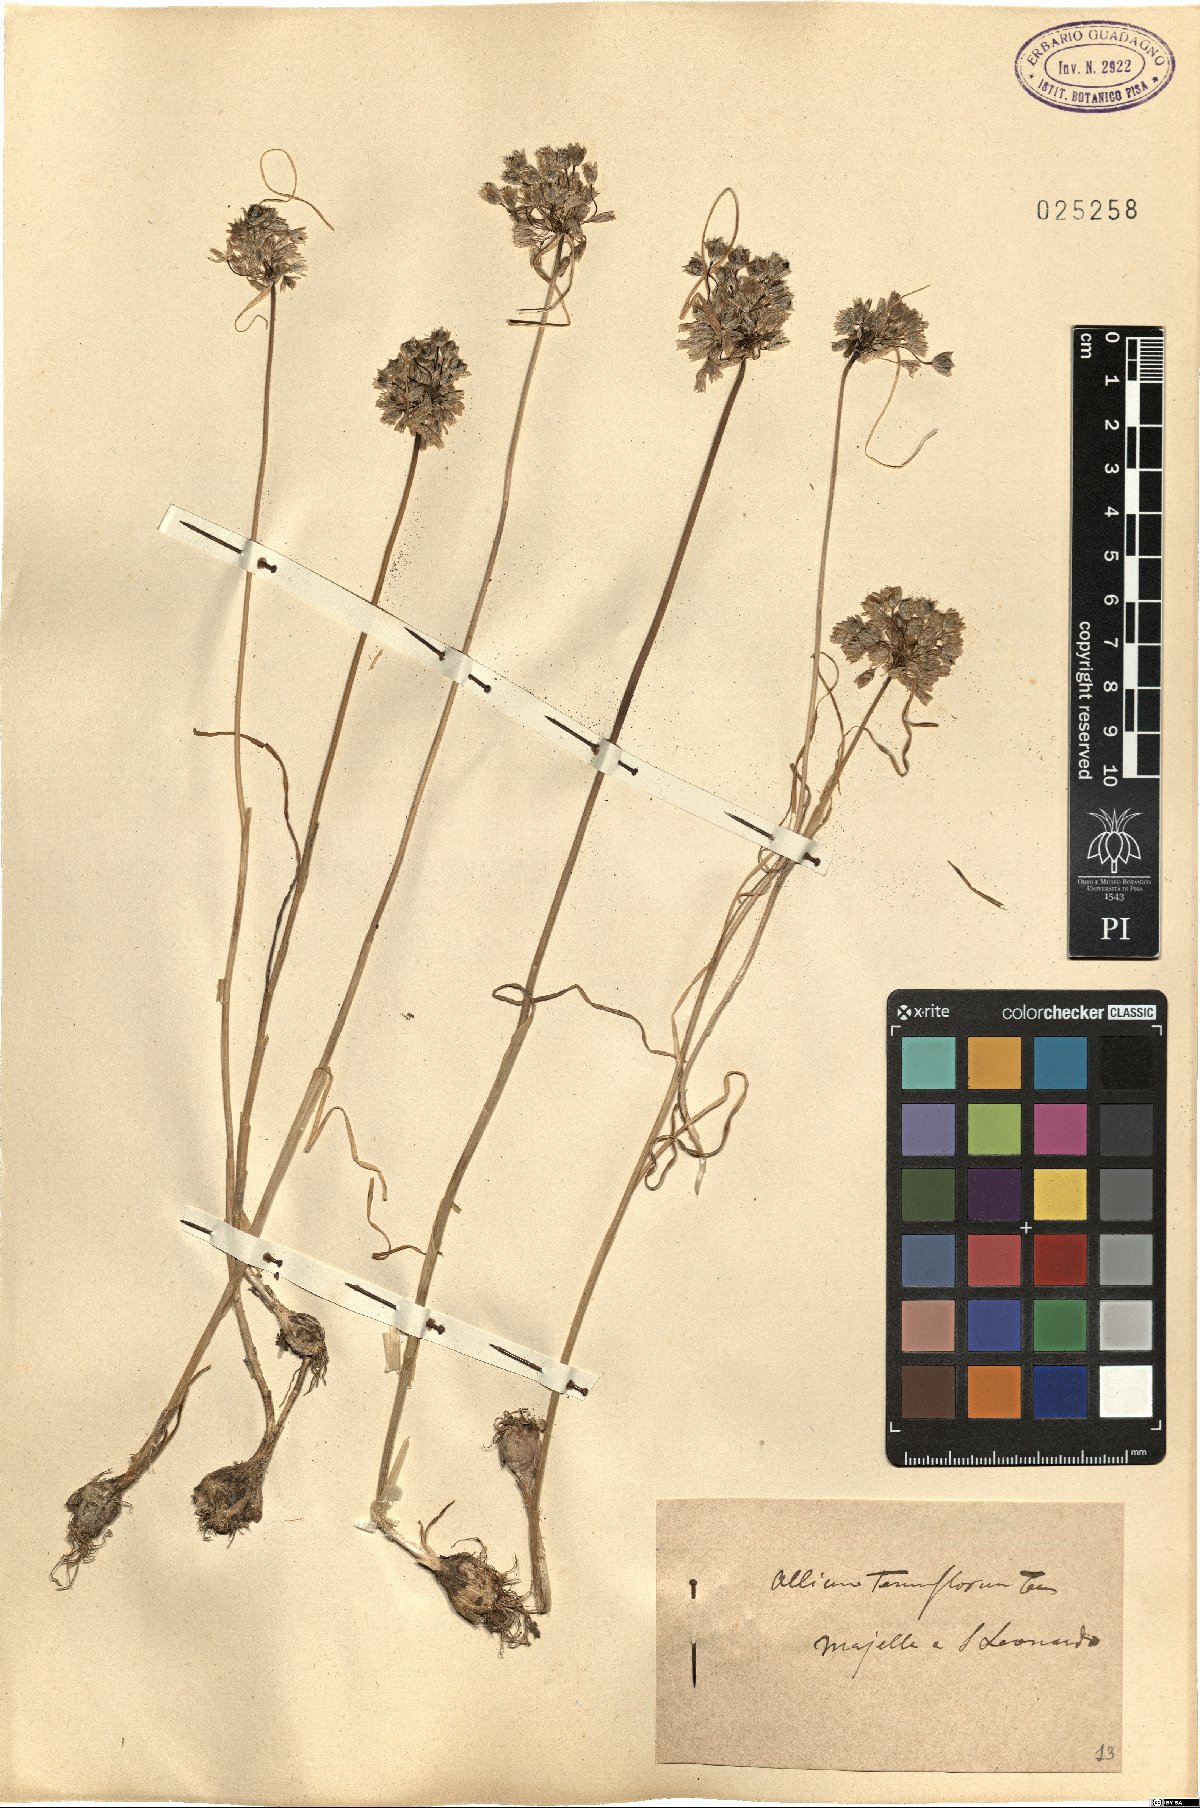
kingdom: Plantae
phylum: Tracheophyta
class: Liliopsida
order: Asparagales
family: Amaryllidaceae
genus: Allium
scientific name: Allium tenuiflorum
